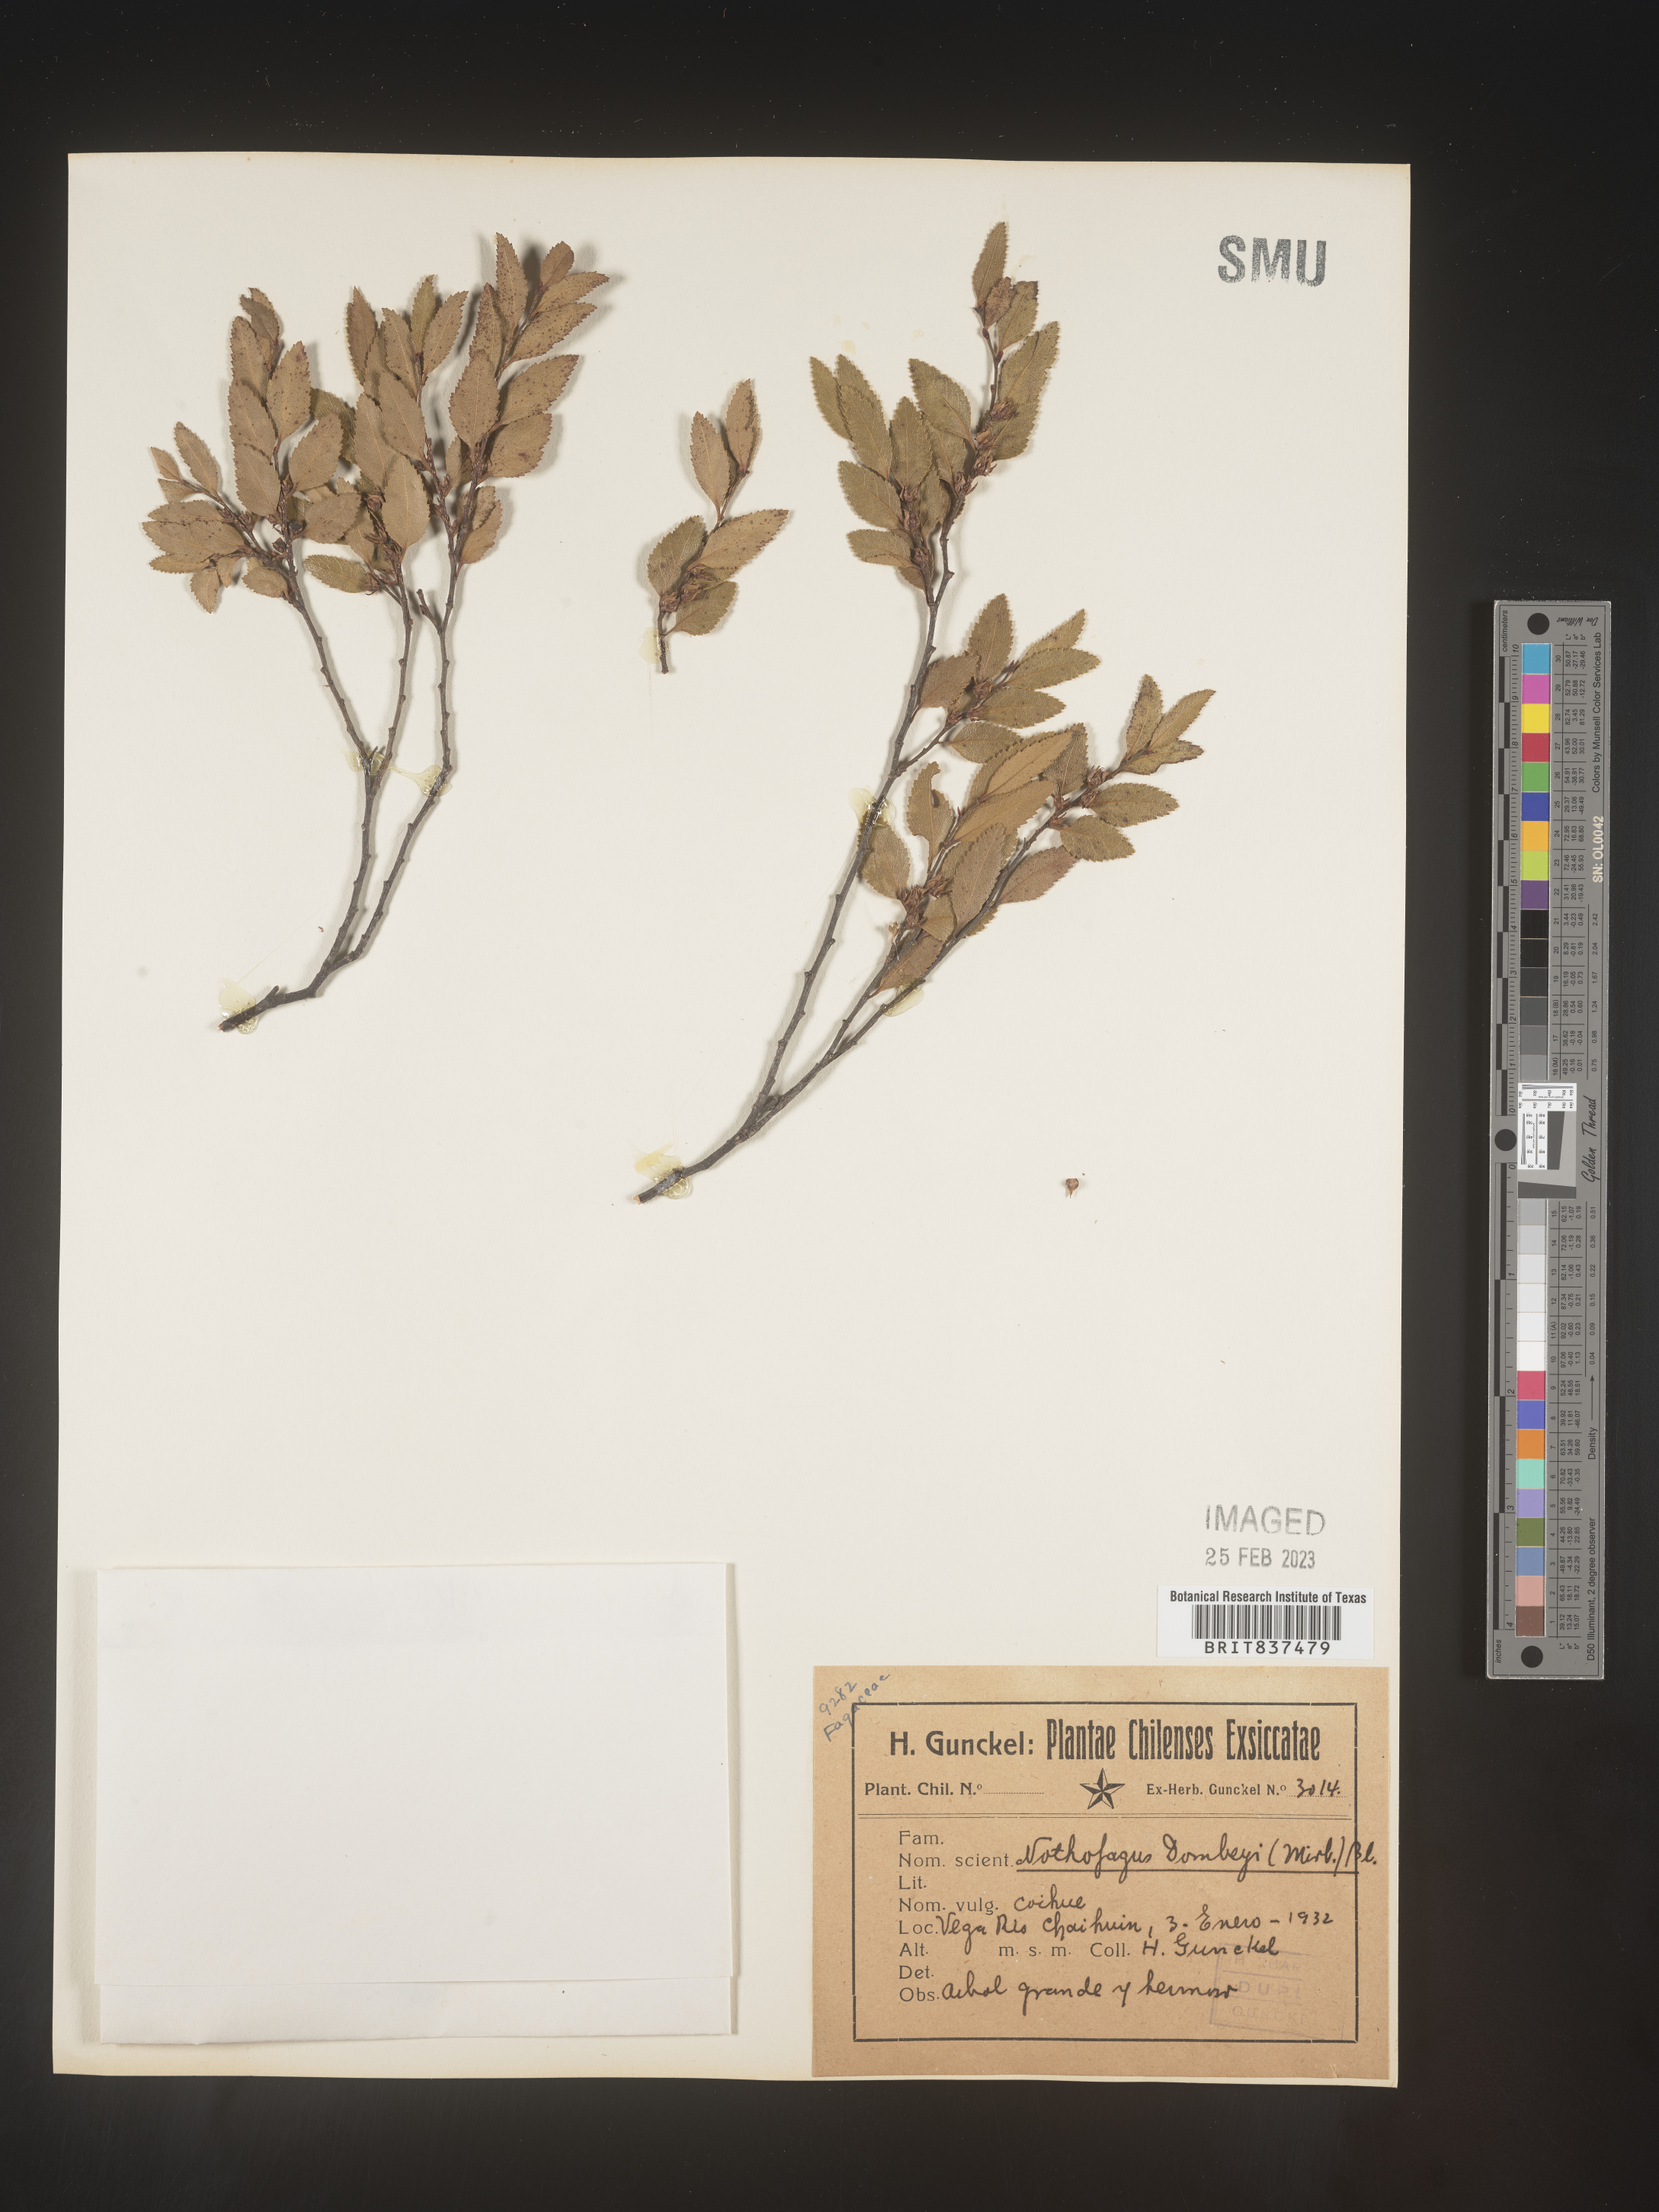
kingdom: Plantae
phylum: Tracheophyta
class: Magnoliopsida
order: Fagales
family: Nothofagaceae
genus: Nothofagus
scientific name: Nothofagus
